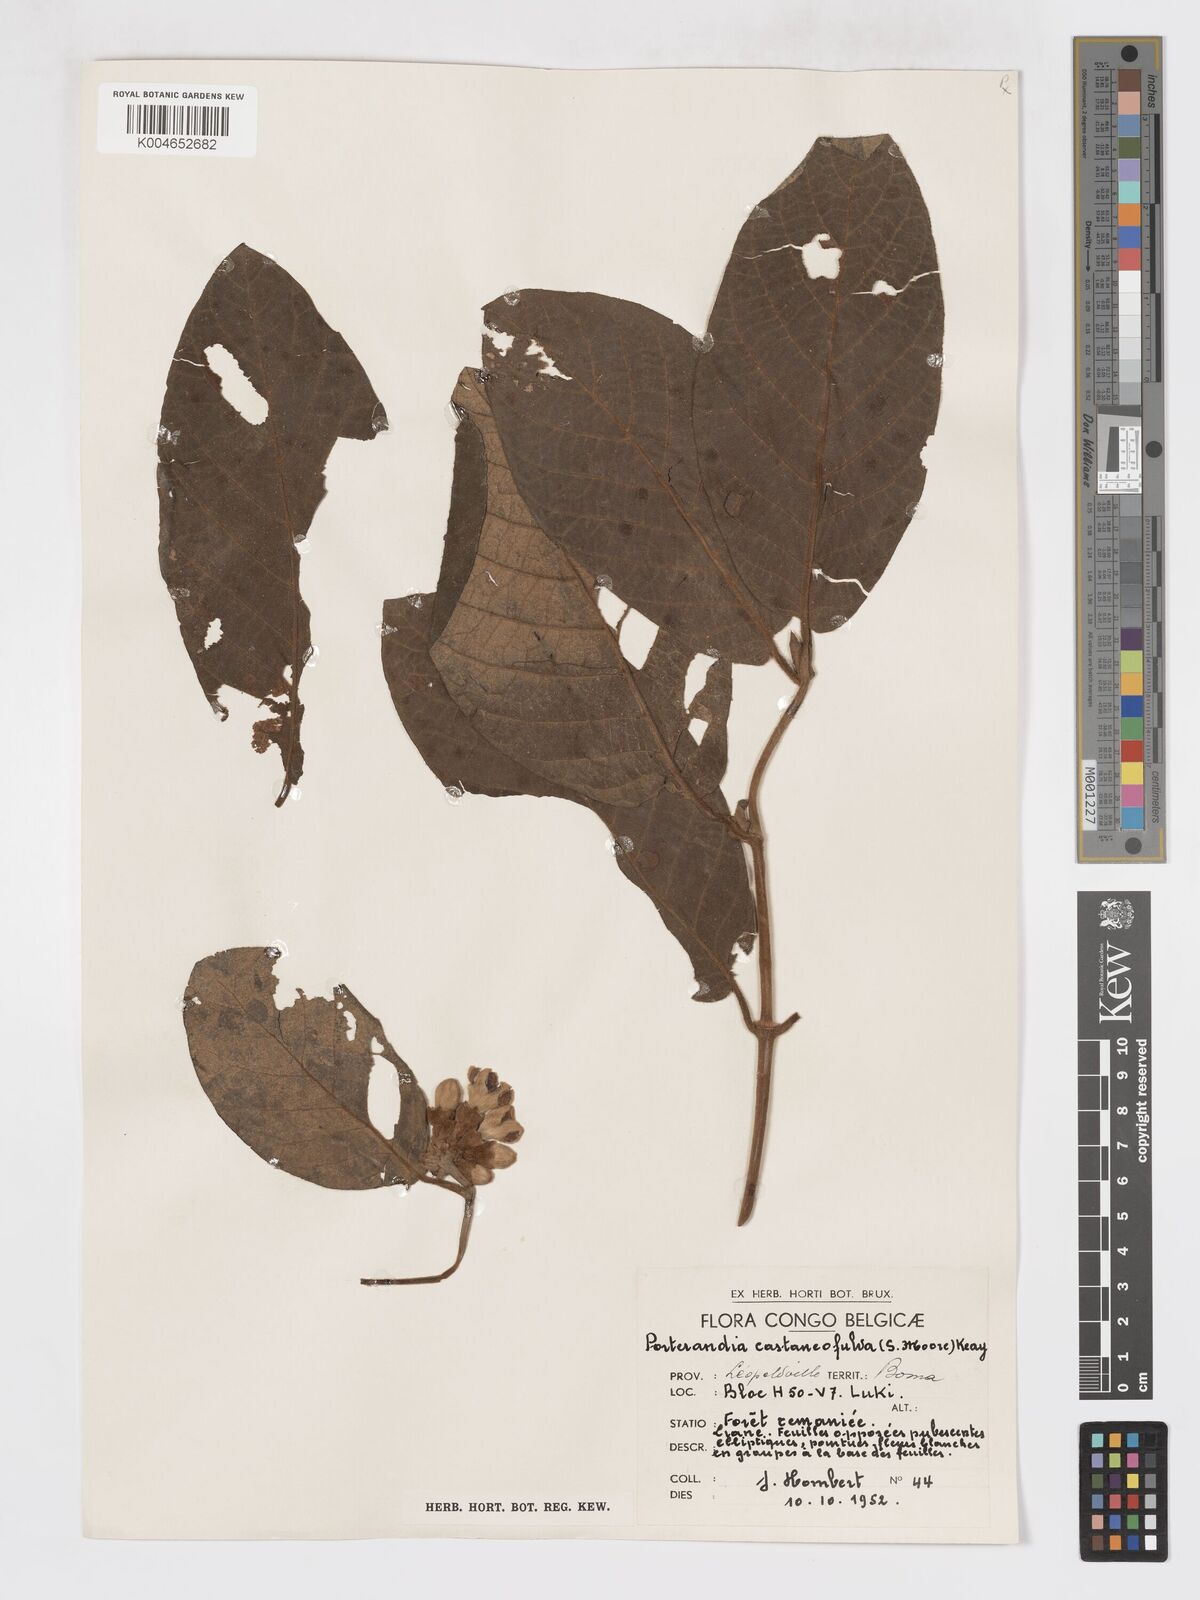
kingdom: Plantae
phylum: Tracheophyta
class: Magnoliopsida
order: Gentianales
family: Rubiaceae
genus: Aoranthe
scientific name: Aoranthe castaneofulva
